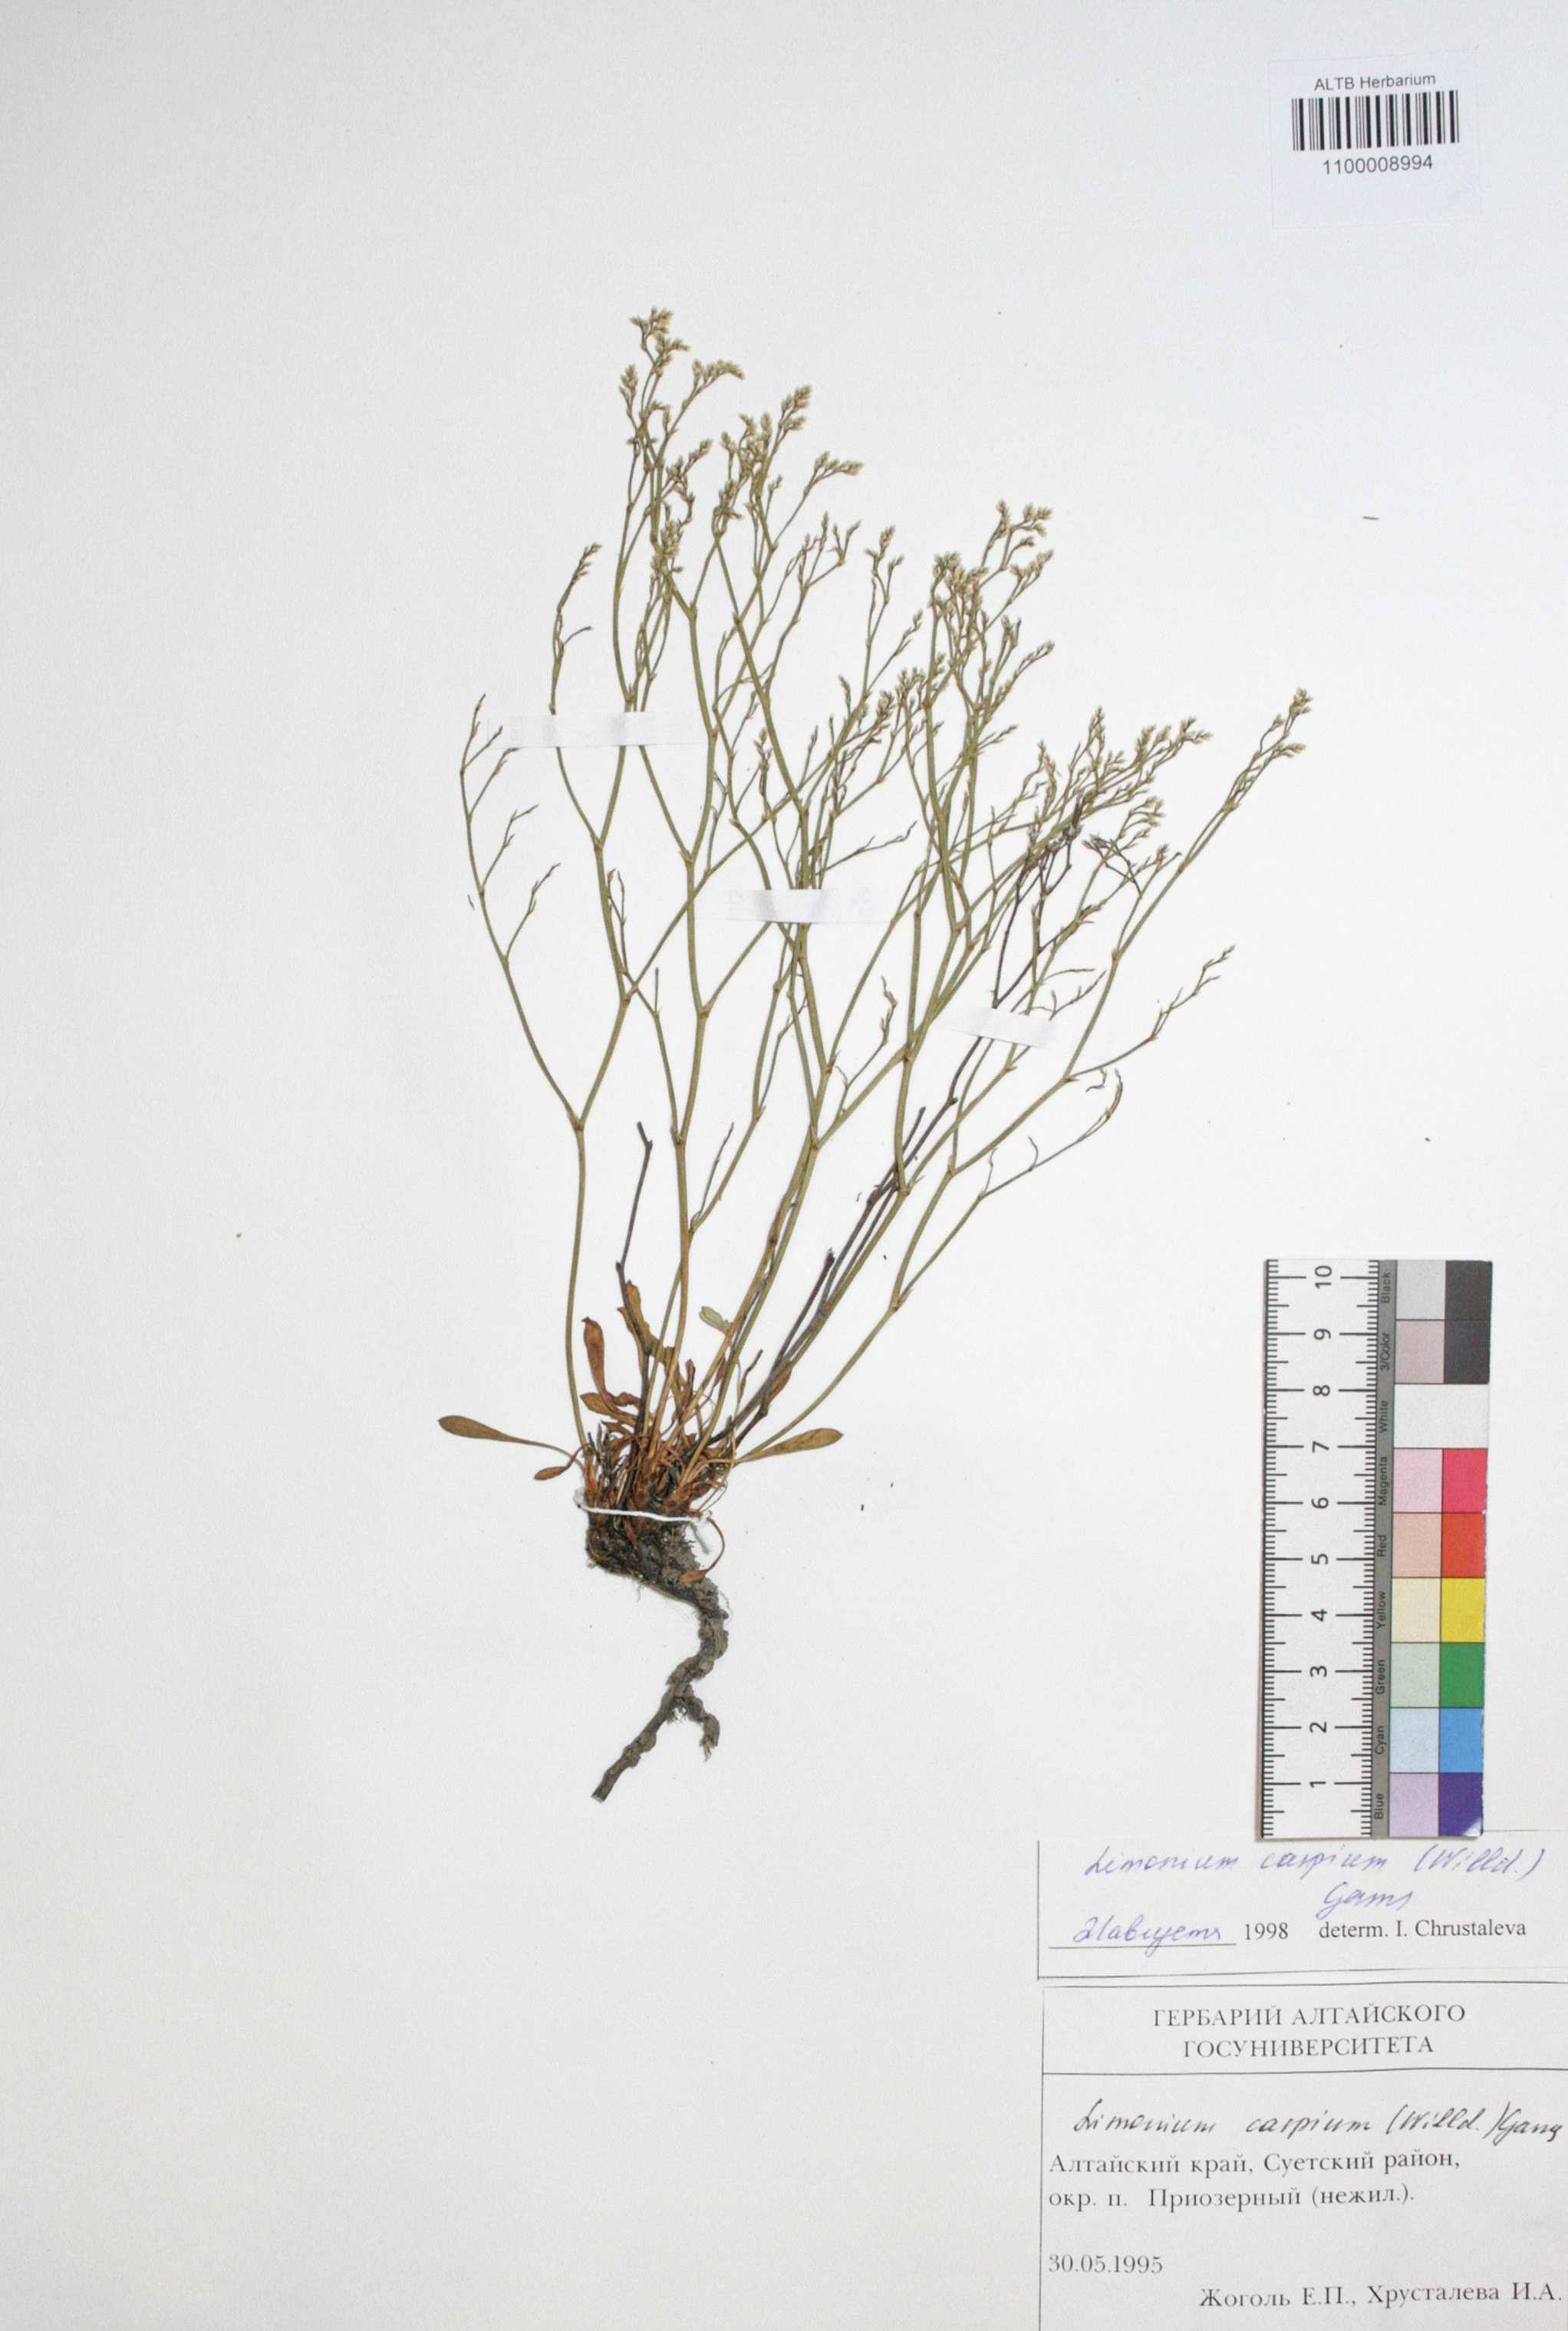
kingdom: Plantae
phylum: Tracheophyta
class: Magnoliopsida
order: Caryophyllales
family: Plumbaginaceae
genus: Limonium
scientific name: Limonium bellidifolium
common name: Matted sea-lavender
